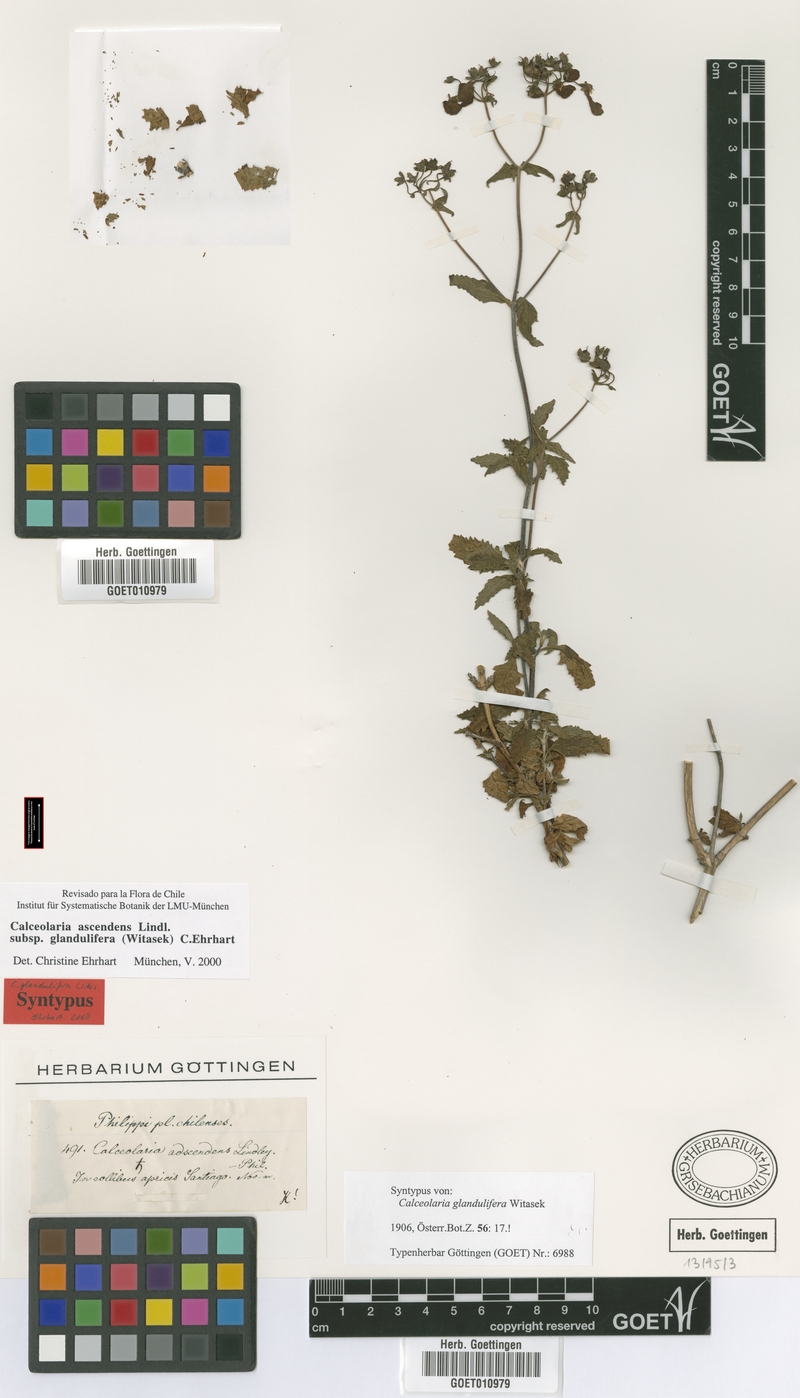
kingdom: Plantae
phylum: Tracheophyta
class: Magnoliopsida
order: Lamiales
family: Calceolariaceae
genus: Calceolaria
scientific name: Calceolaria ascendens
